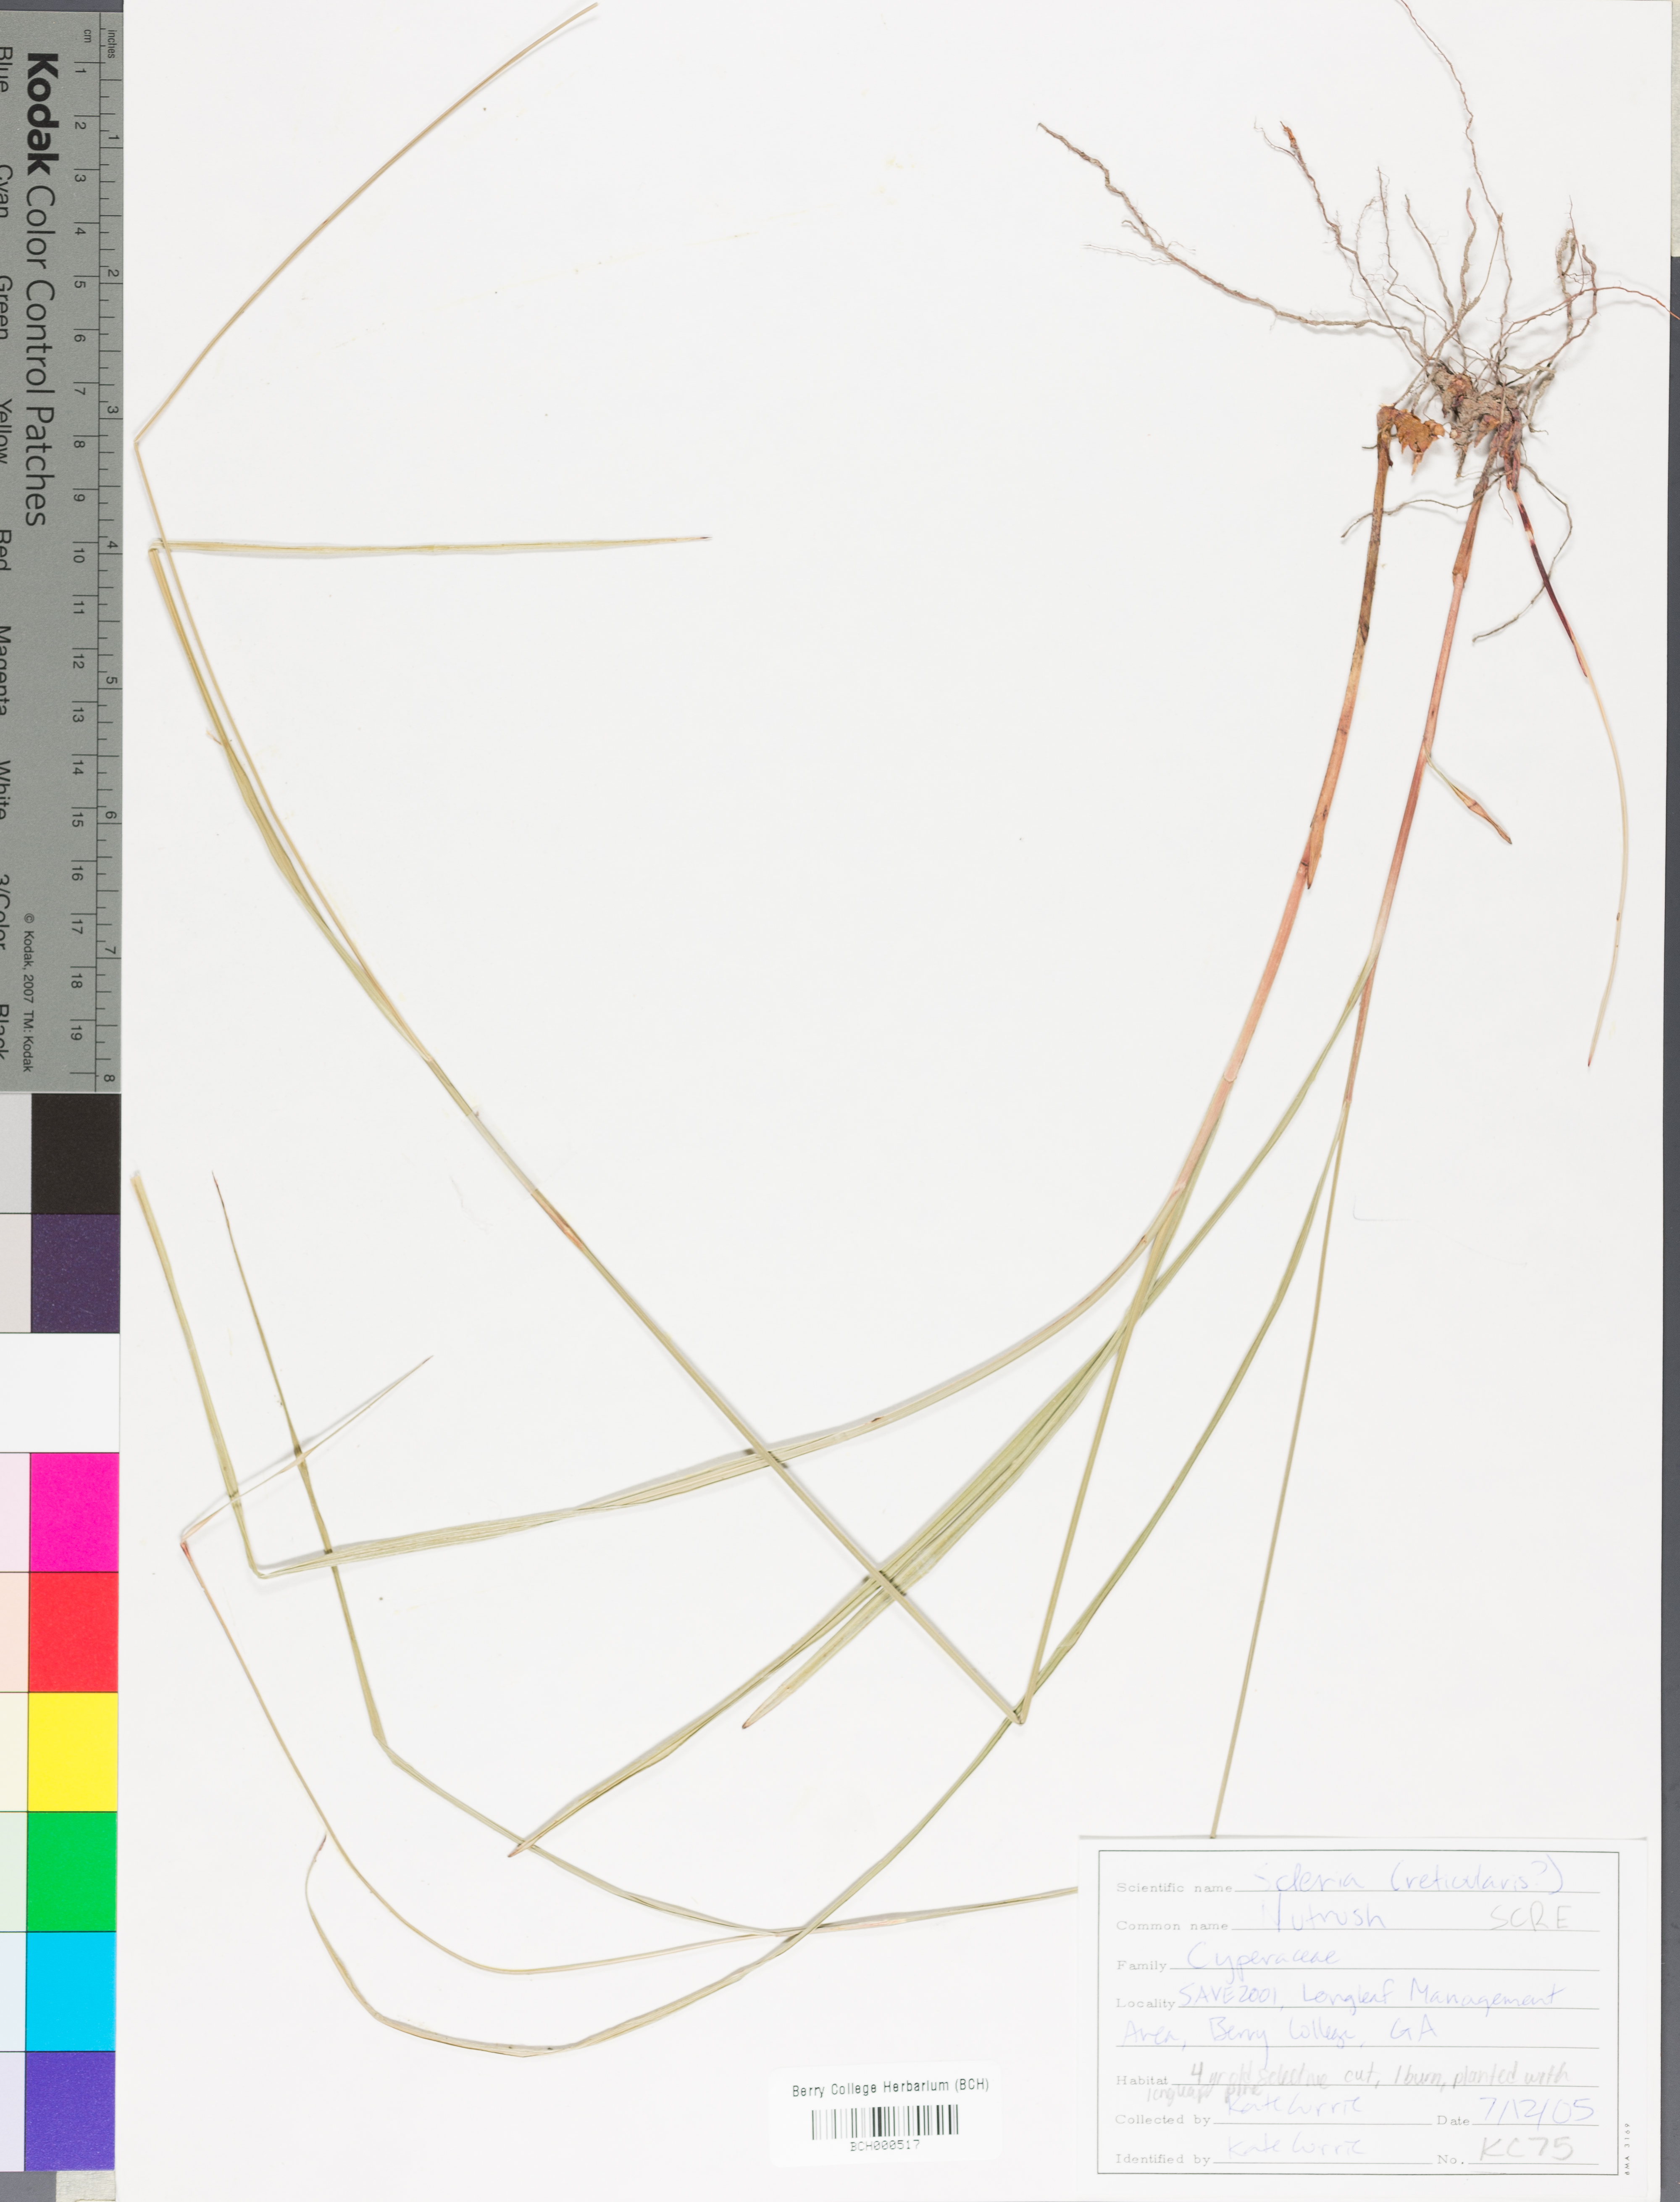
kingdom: Plantae
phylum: Tracheophyta
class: Liliopsida
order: Poales
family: Cyperaceae
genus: Scleria
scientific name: Scleria reticularis
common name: Netted nutrush
